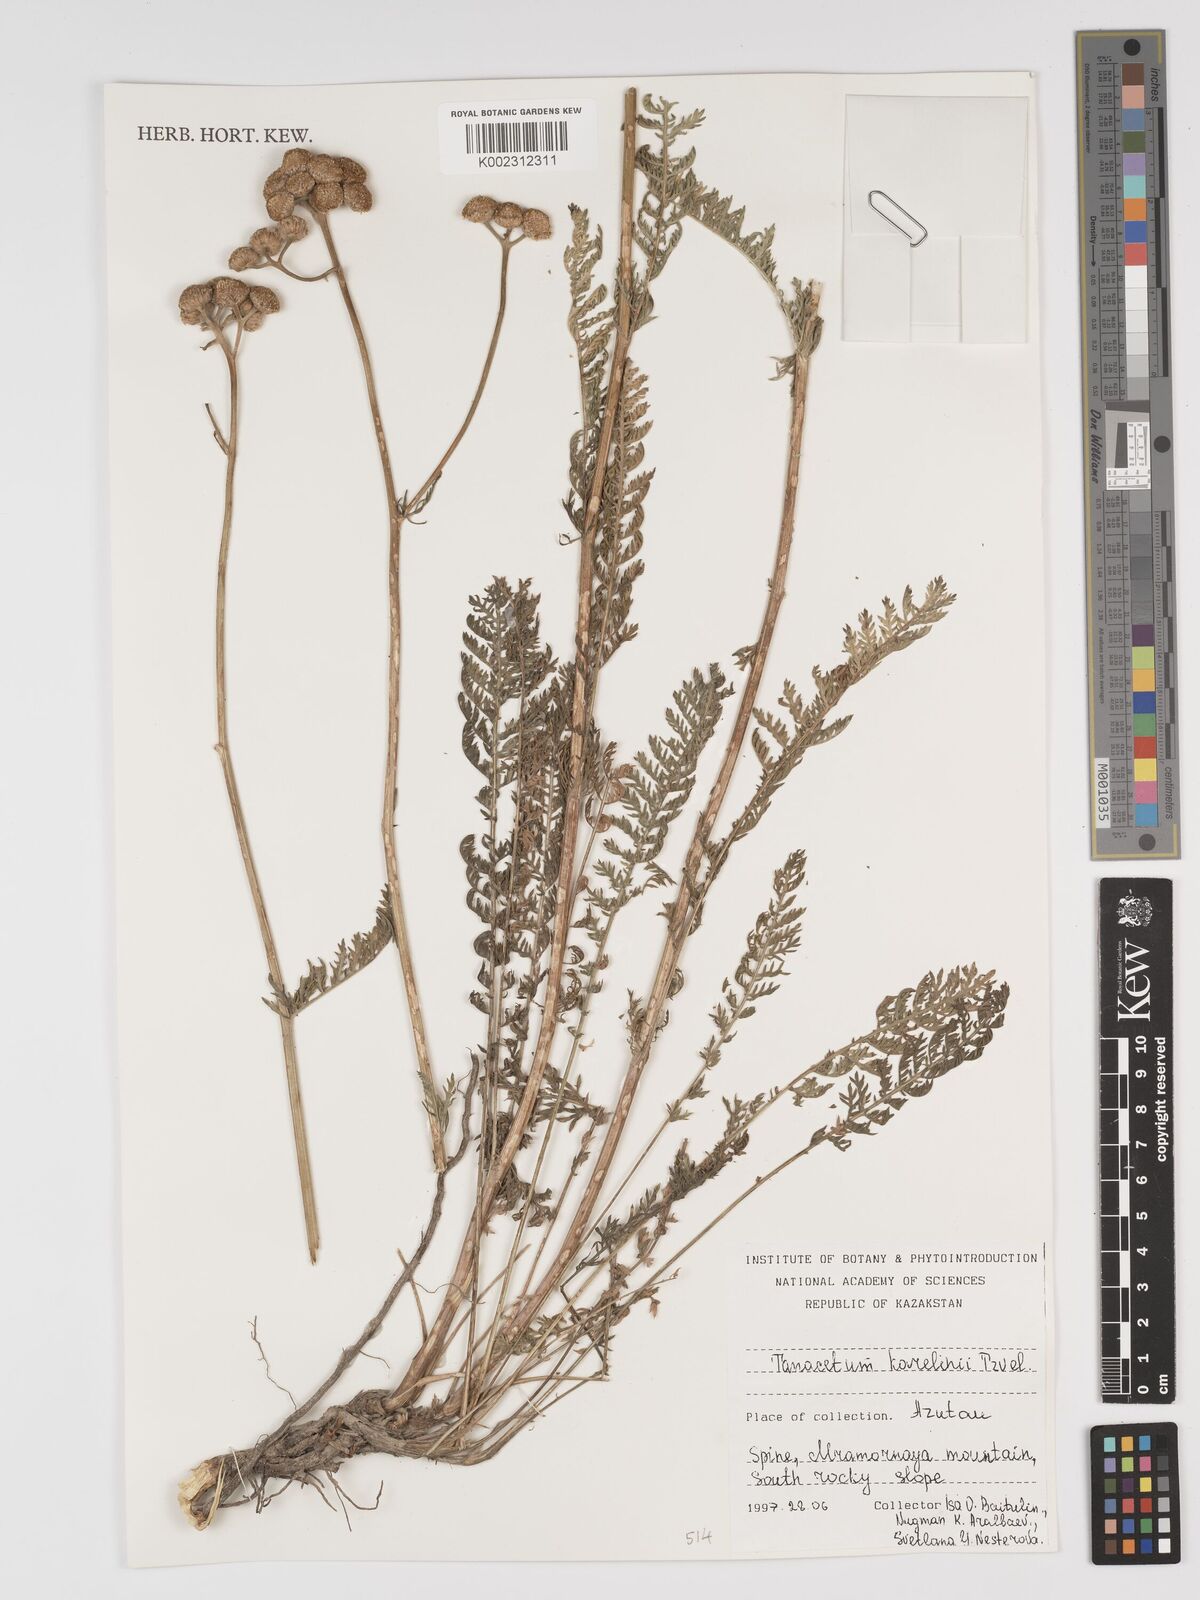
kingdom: Plantae
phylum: Tracheophyta
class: Magnoliopsida
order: Asterales
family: Asteraceae
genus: Tanacetum
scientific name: Tanacetum karelinii
